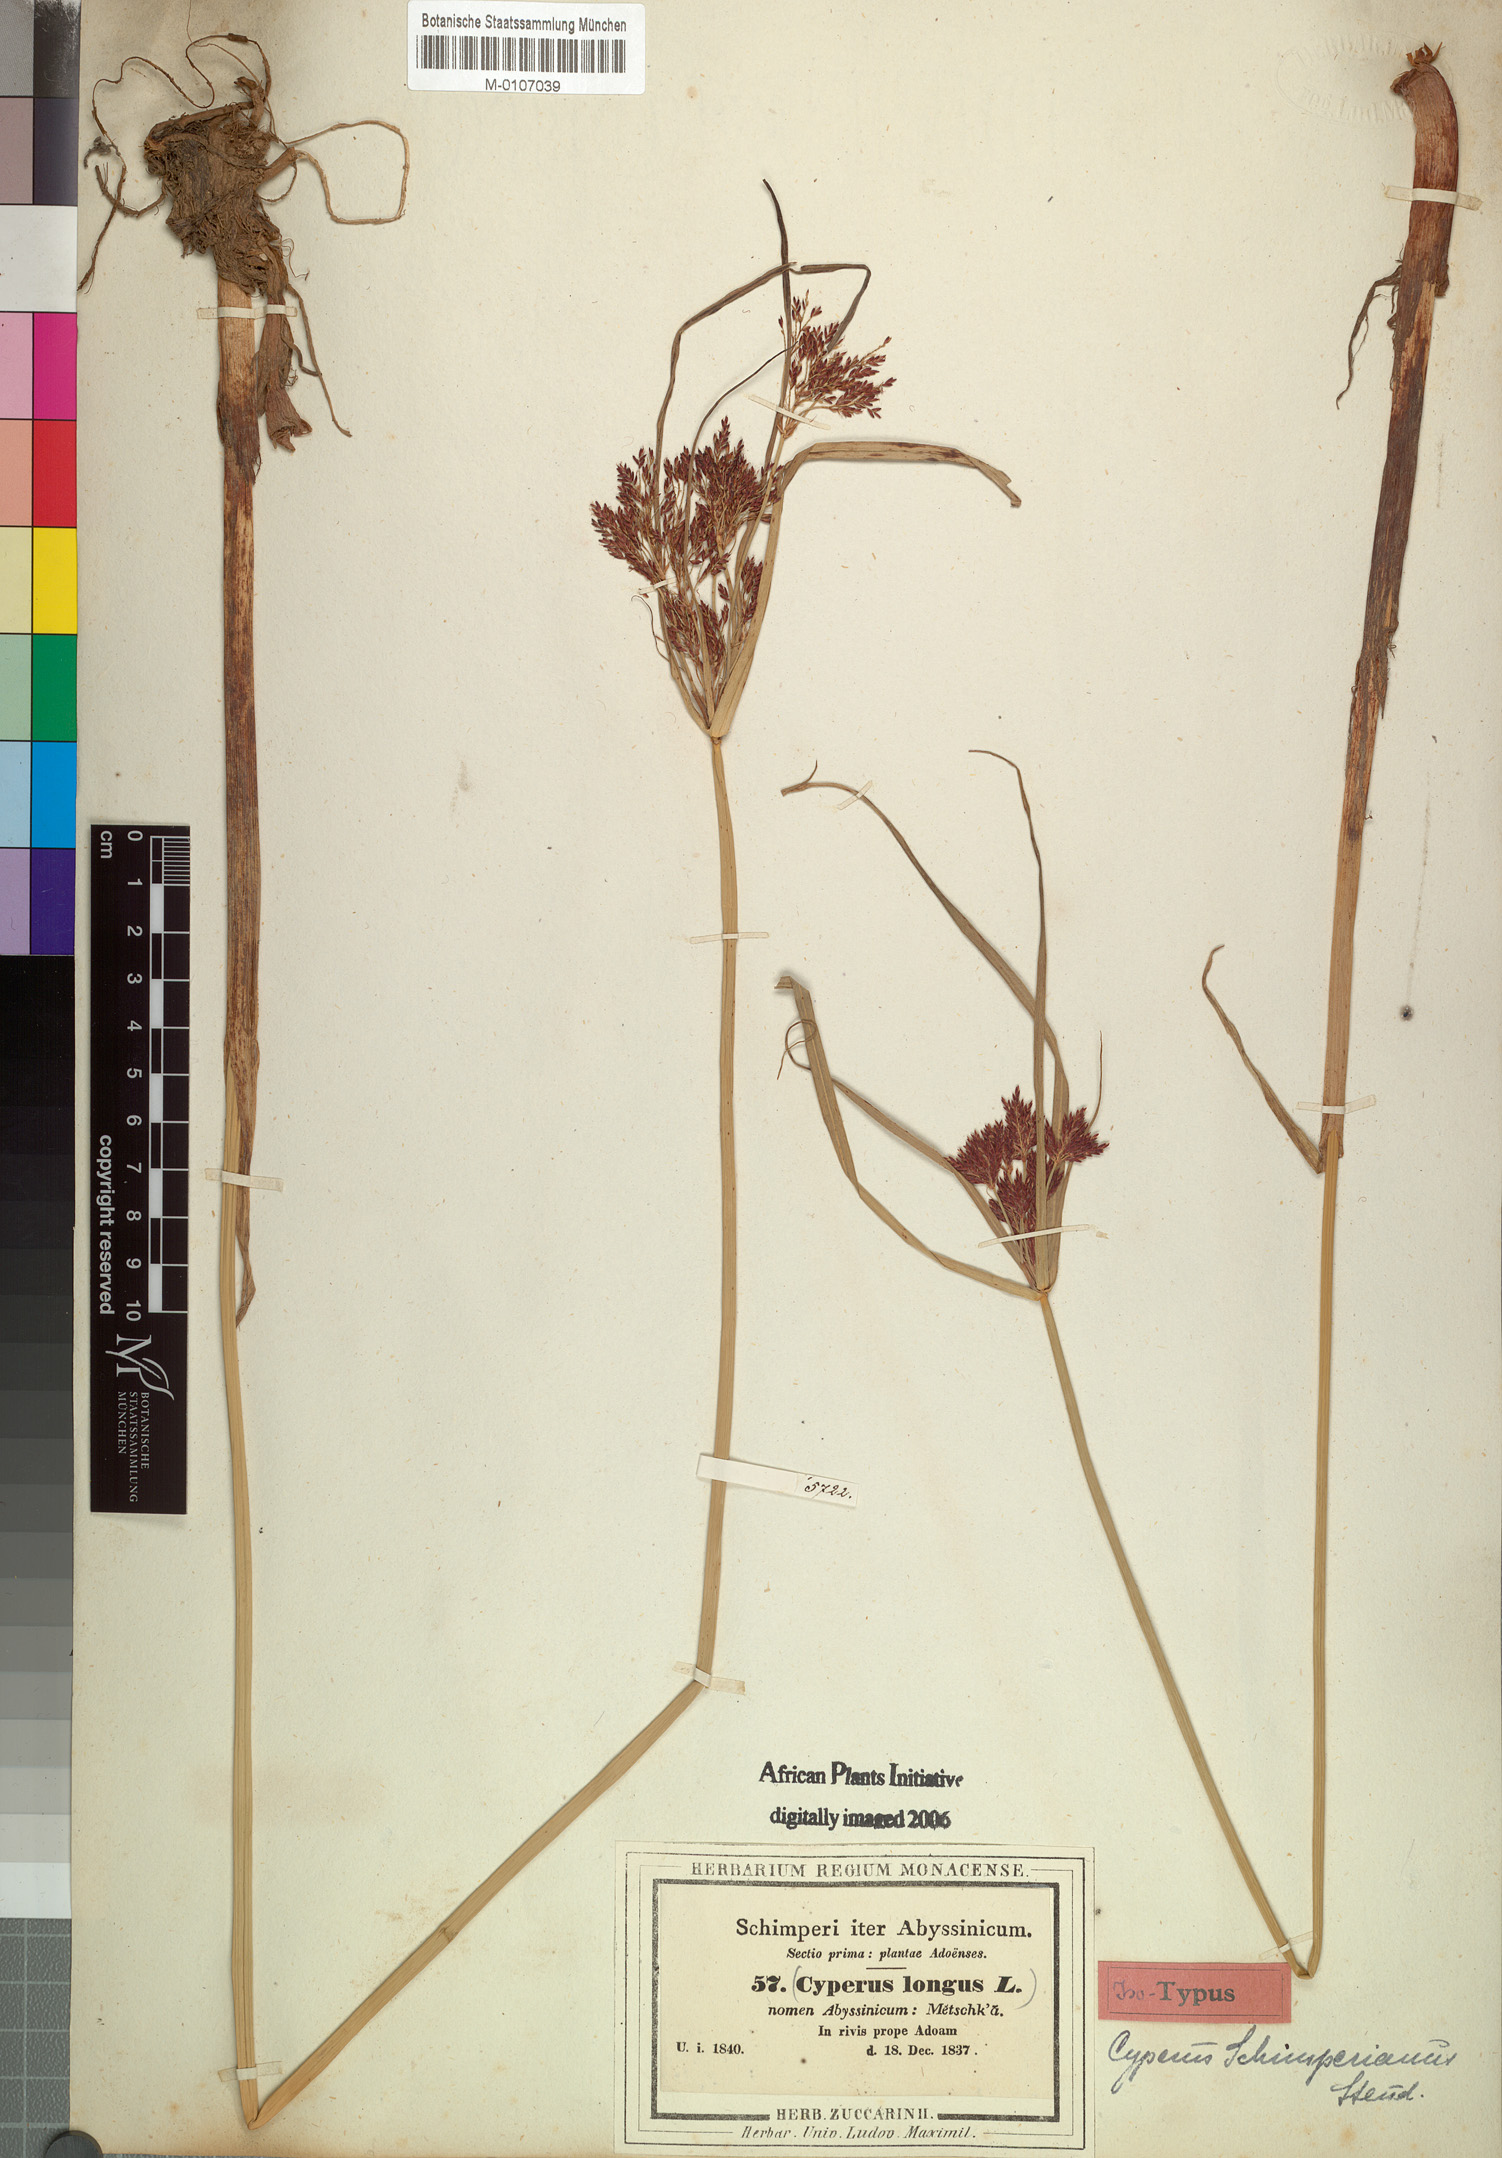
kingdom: Plantae
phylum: Tracheophyta
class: Liliopsida
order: Poales
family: Cyperaceae
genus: Cyperus
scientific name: Cyperus schimperianus
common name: Schimper flatsedge
